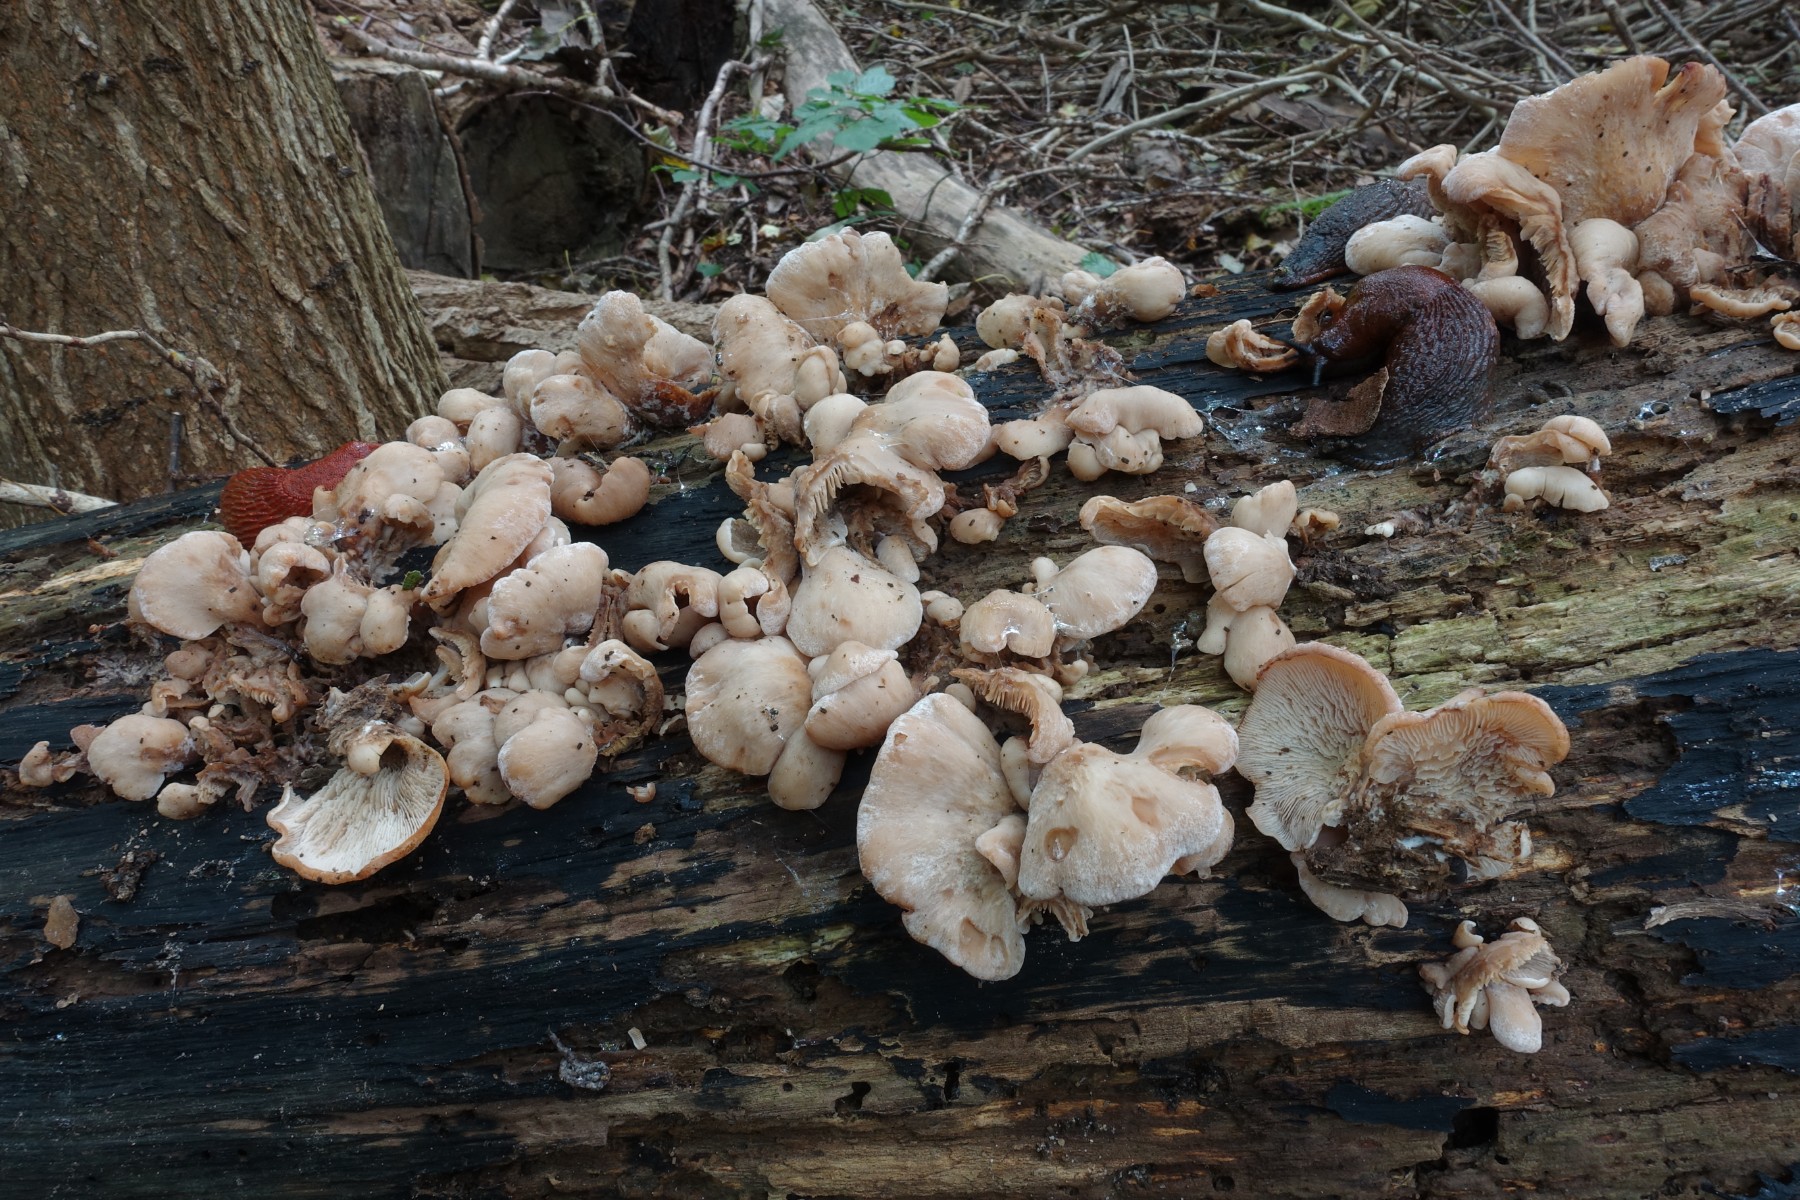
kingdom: Fungi
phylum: Basidiomycota
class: Agaricomycetes
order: Russulales
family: Auriscalpiaceae
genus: Lentinellus
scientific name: Lentinellus ursinus
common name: børstehåret savbladhat
